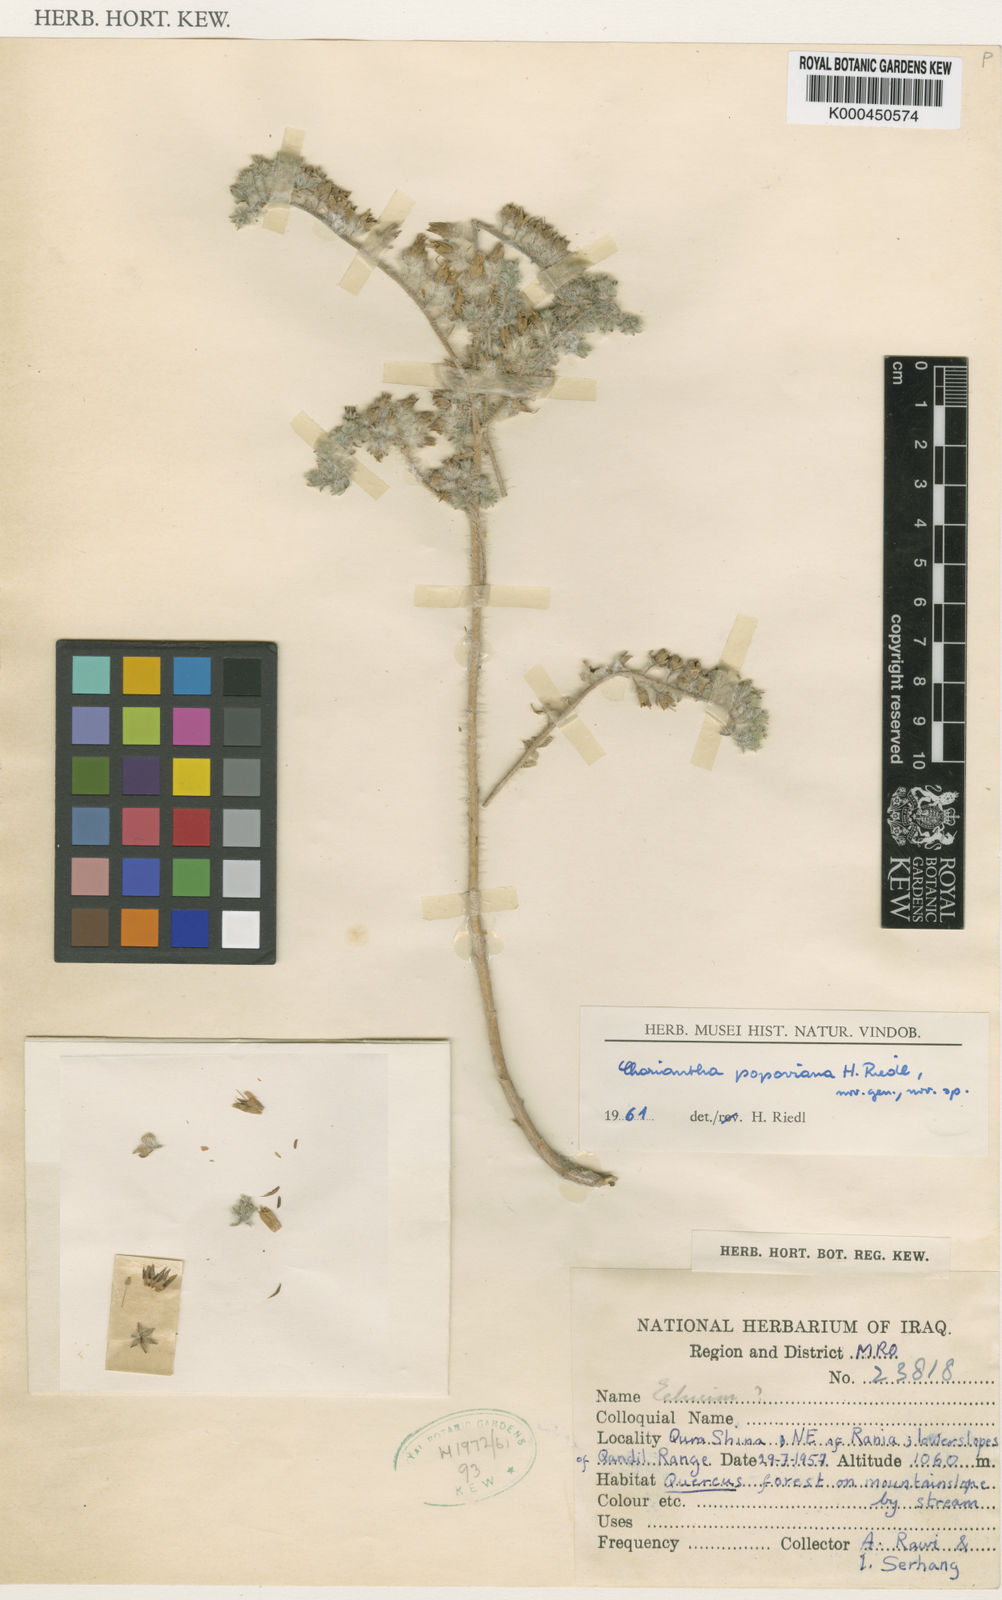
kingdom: Plantae
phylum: Tracheophyta
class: Magnoliopsida
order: Boraginales
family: Boraginaceae
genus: Onosma
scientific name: Onosma popoviana
